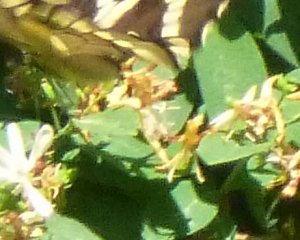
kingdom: Animalia
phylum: Arthropoda
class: Insecta
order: Lepidoptera
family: Papilionidae
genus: Papilio
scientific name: Papilio cresphontes
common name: Eastern Giant Swallowtail
